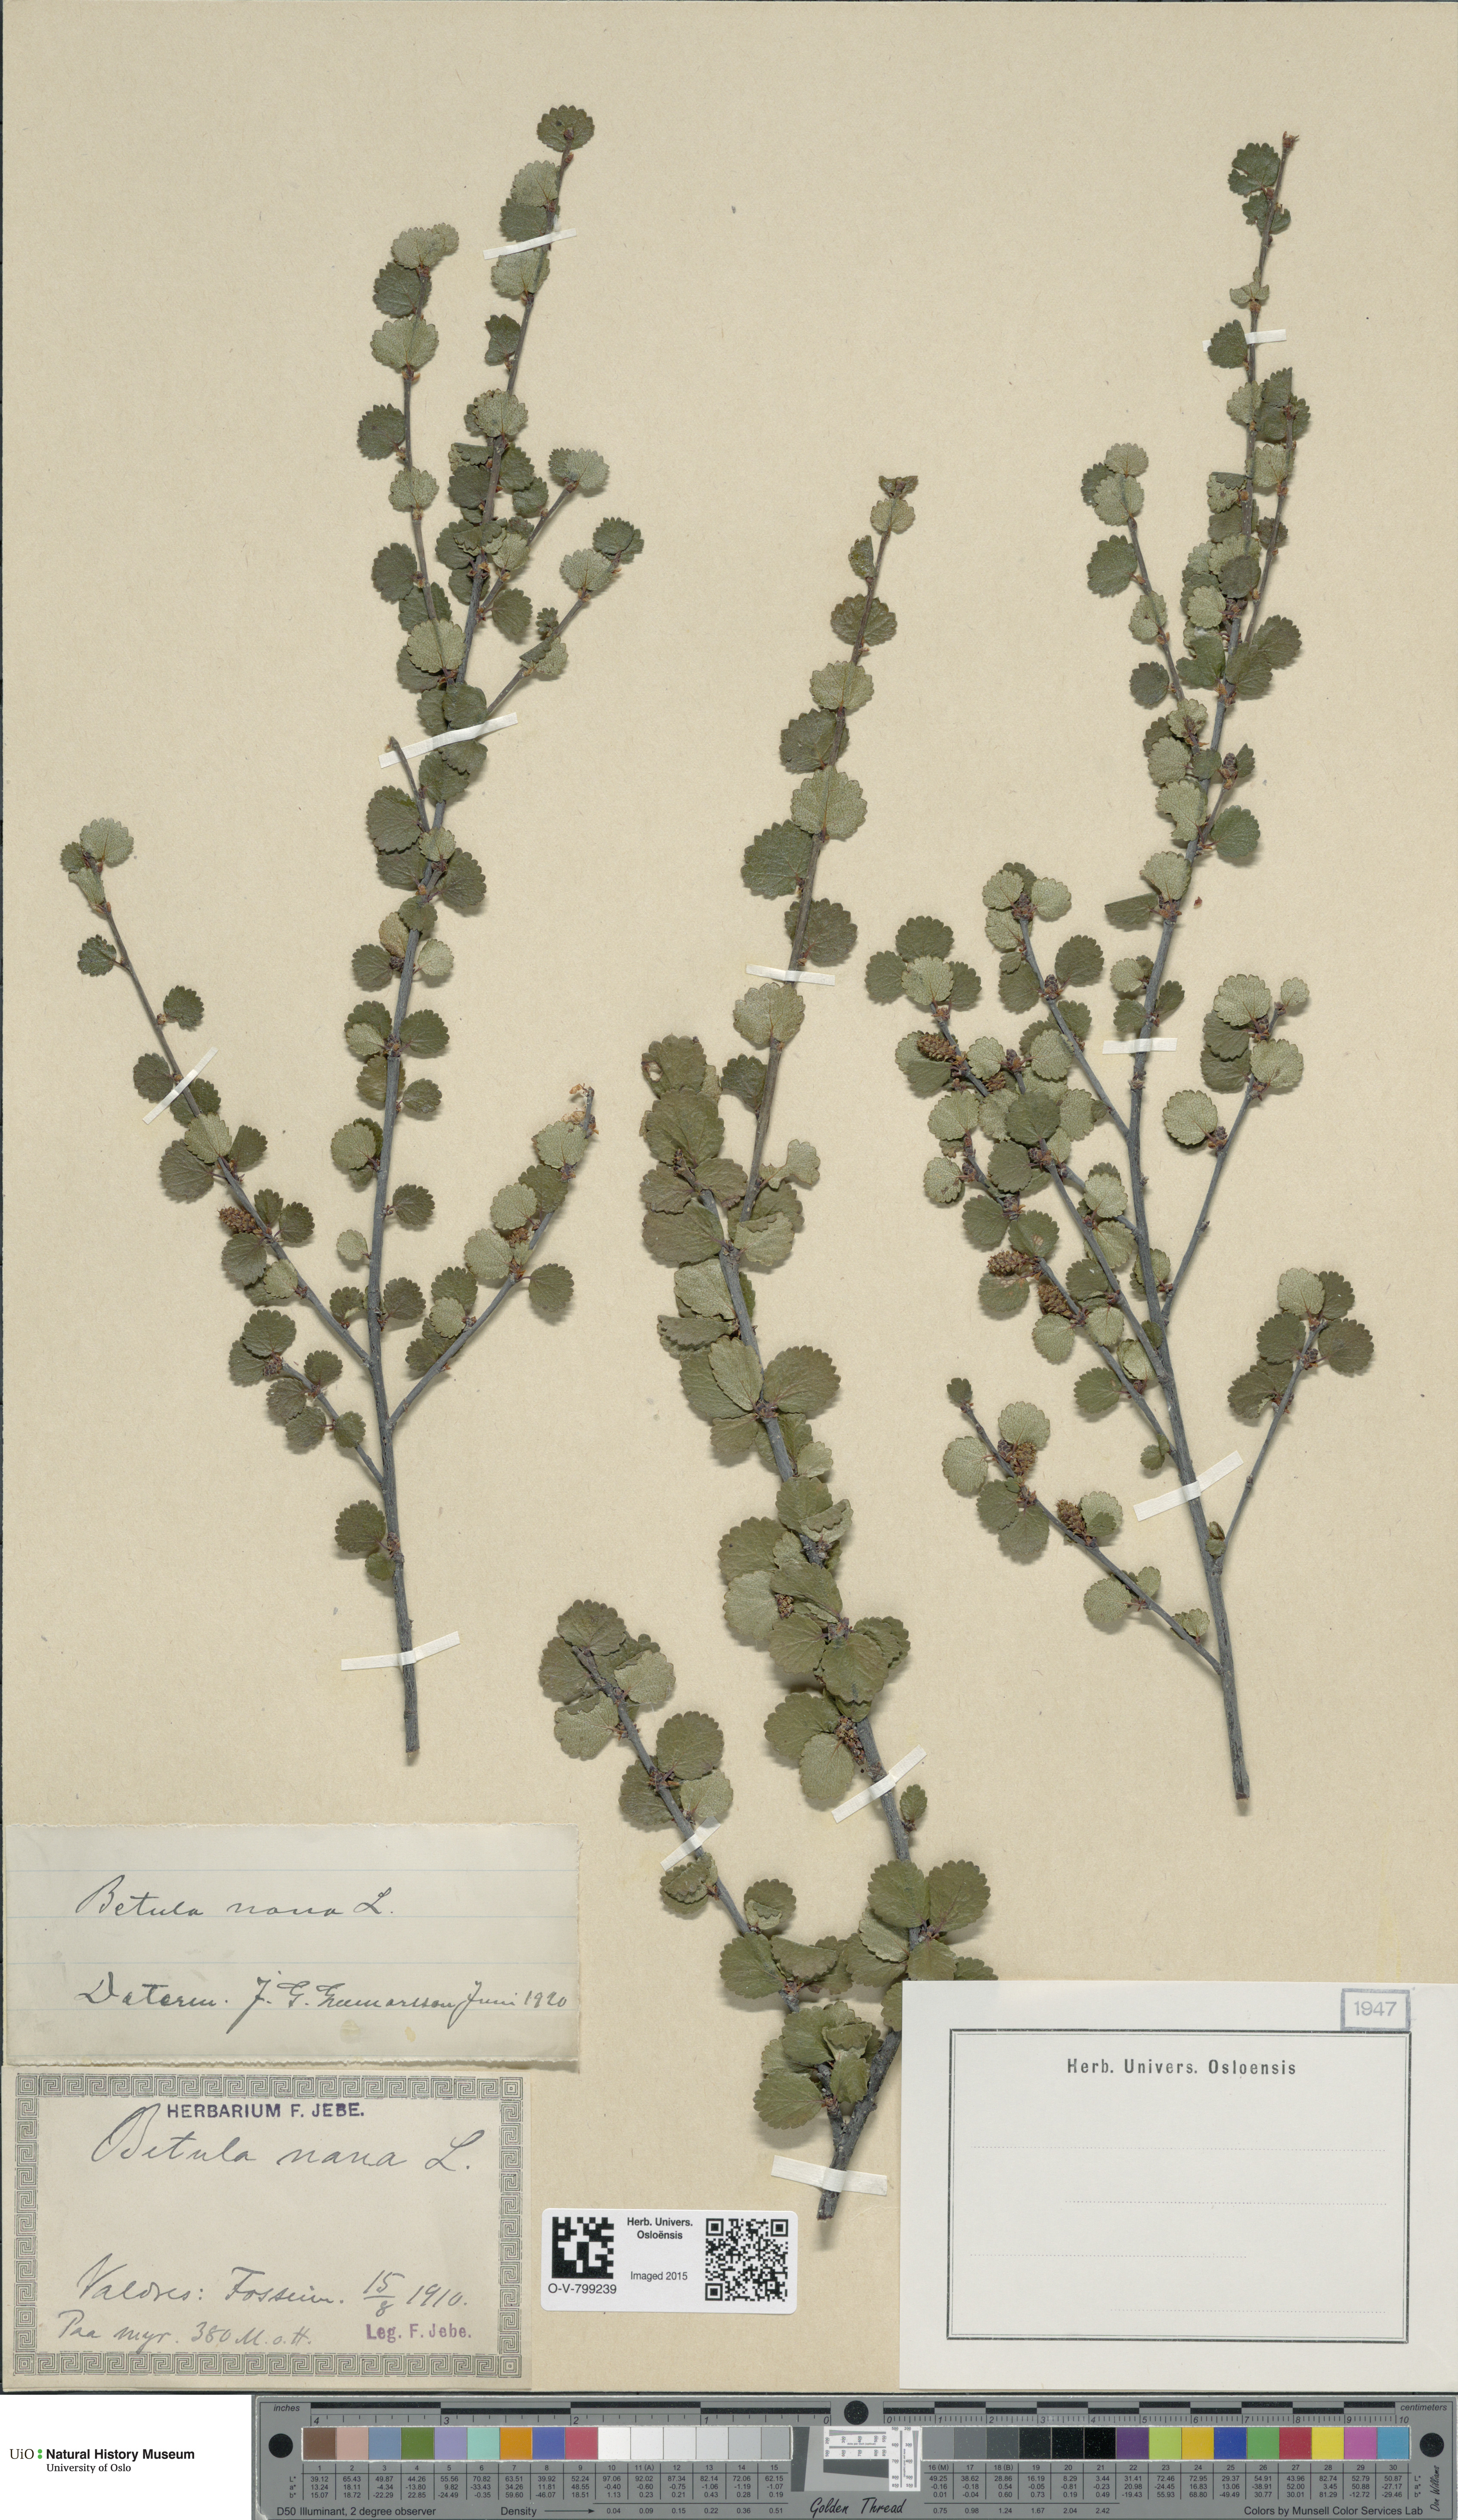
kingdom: Plantae
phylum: Tracheophyta
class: Magnoliopsida
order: Fagales
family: Betulaceae
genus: Betula
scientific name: Betula nana
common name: Arctic dwarf birch
